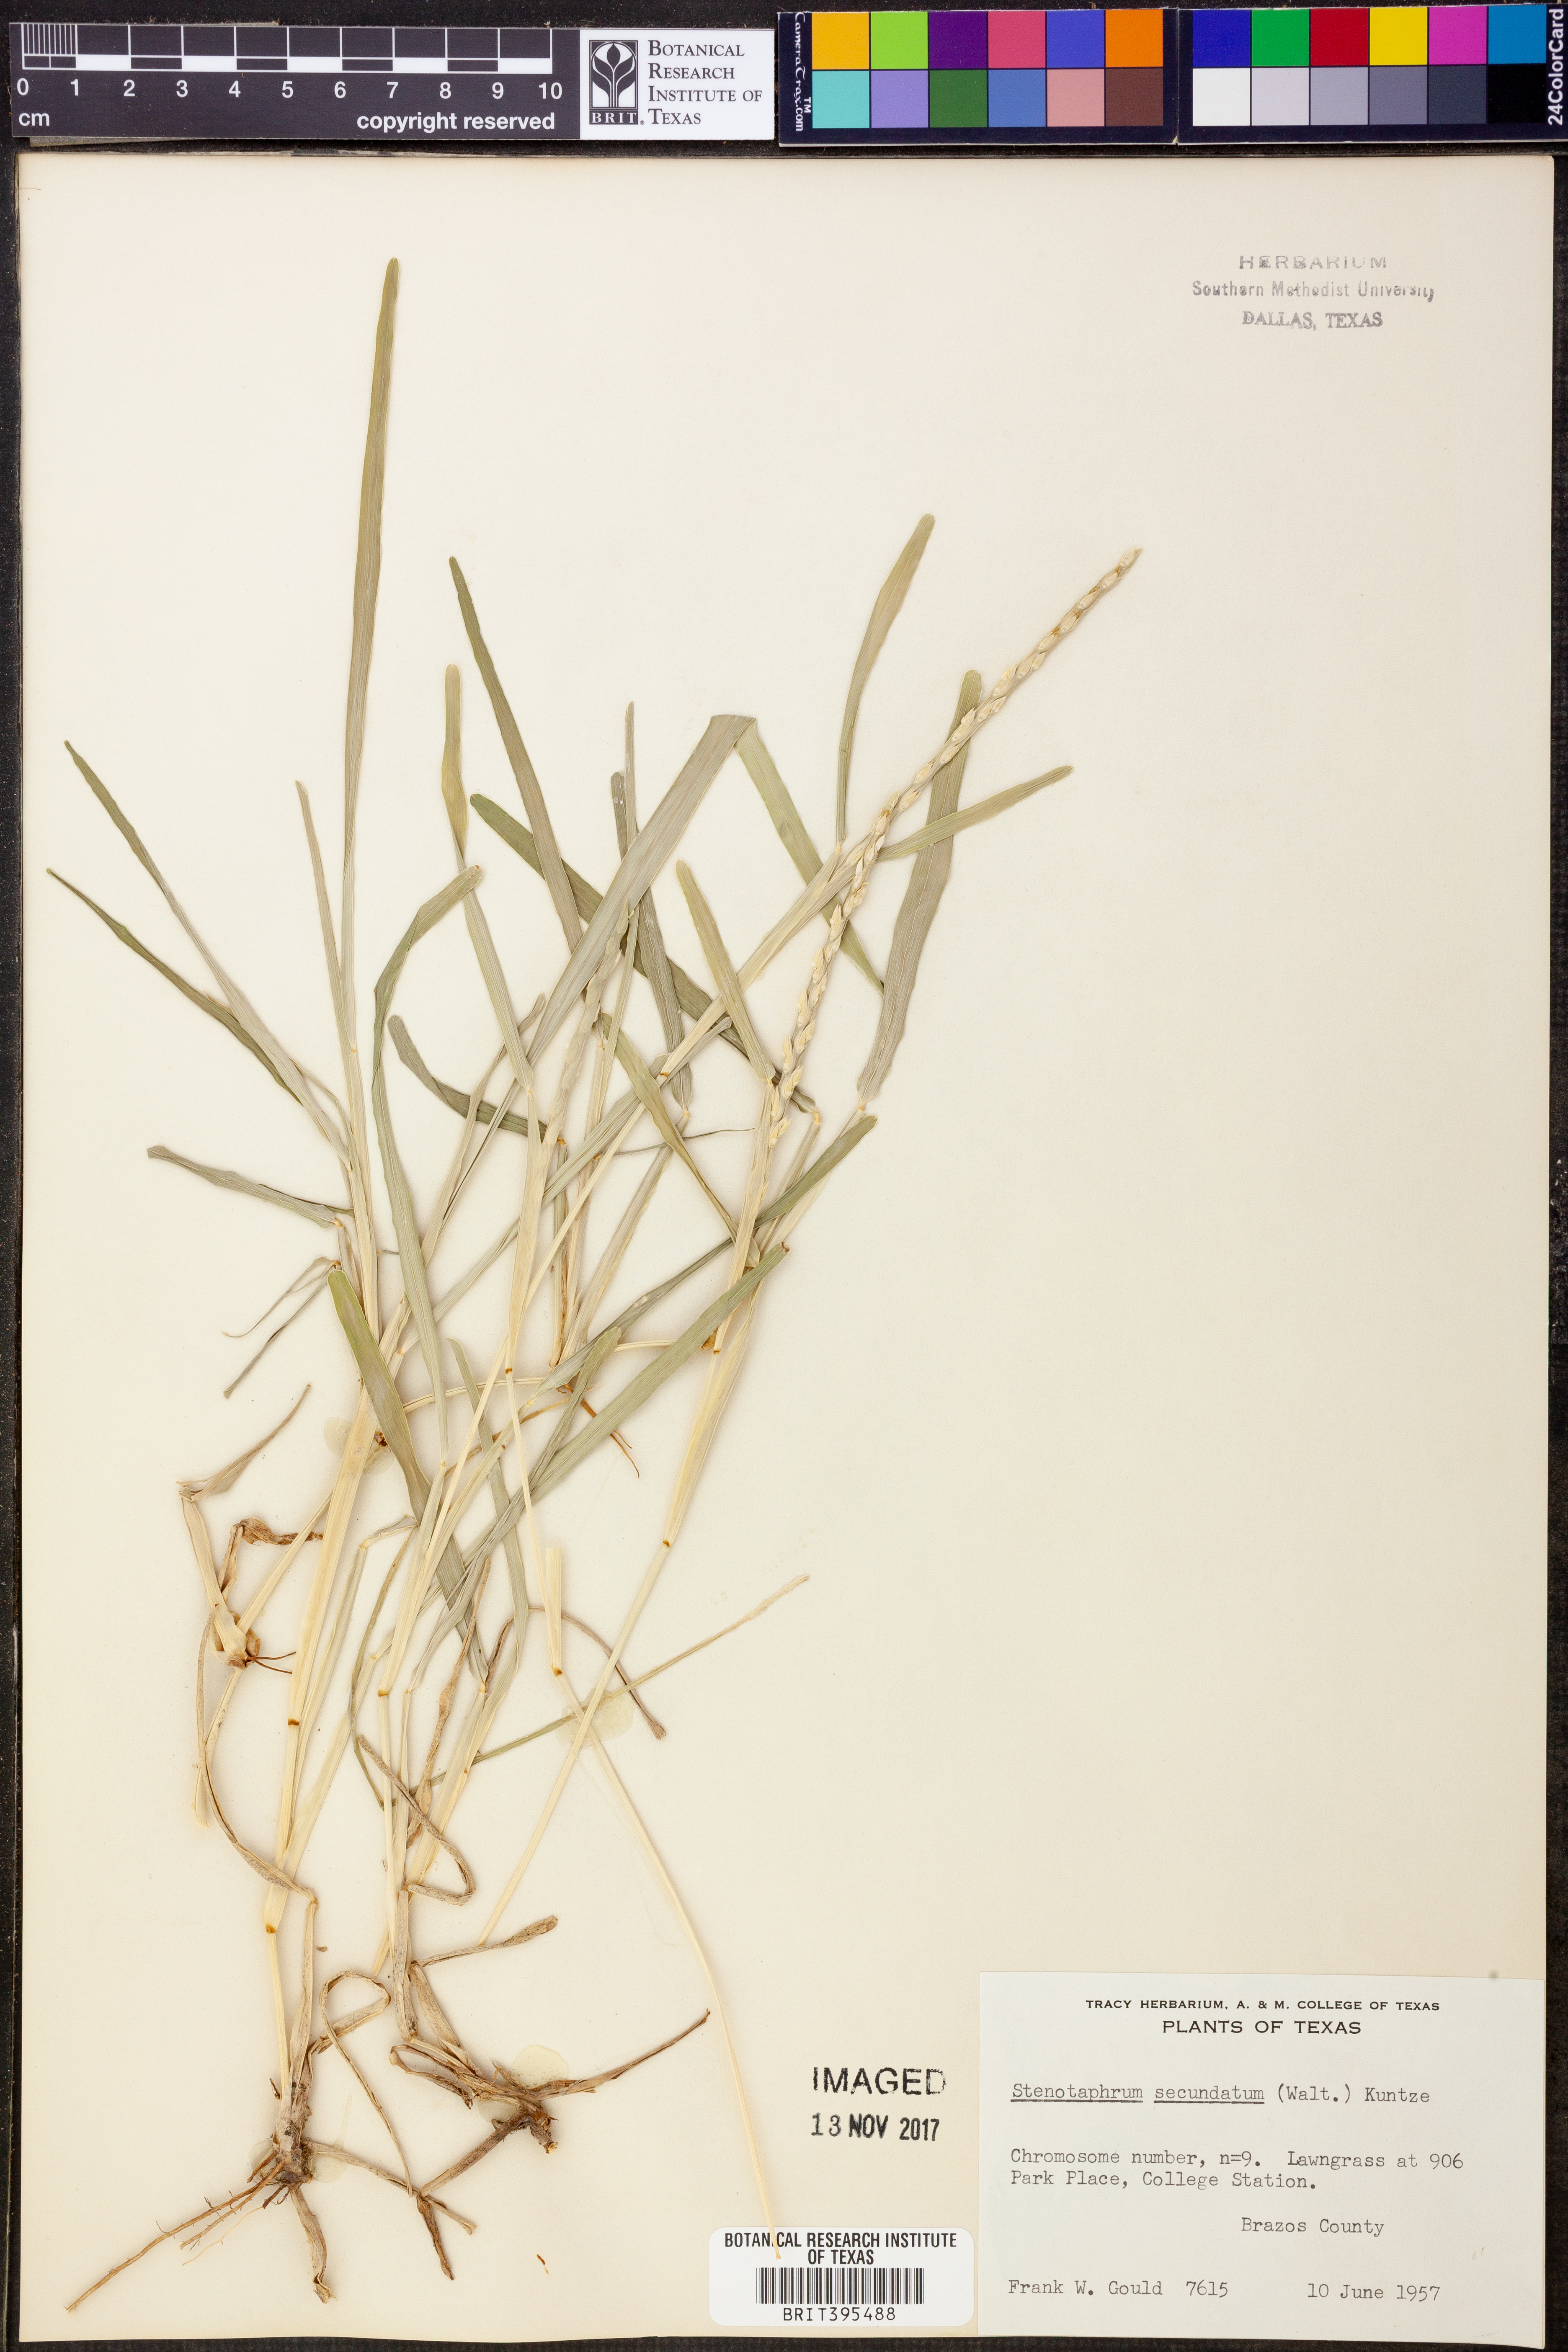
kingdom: Plantae
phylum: Tracheophyta
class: Liliopsida
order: Poales
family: Poaceae
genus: Stenotaphrum
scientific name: Stenotaphrum secundatum
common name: St. augustine grass
